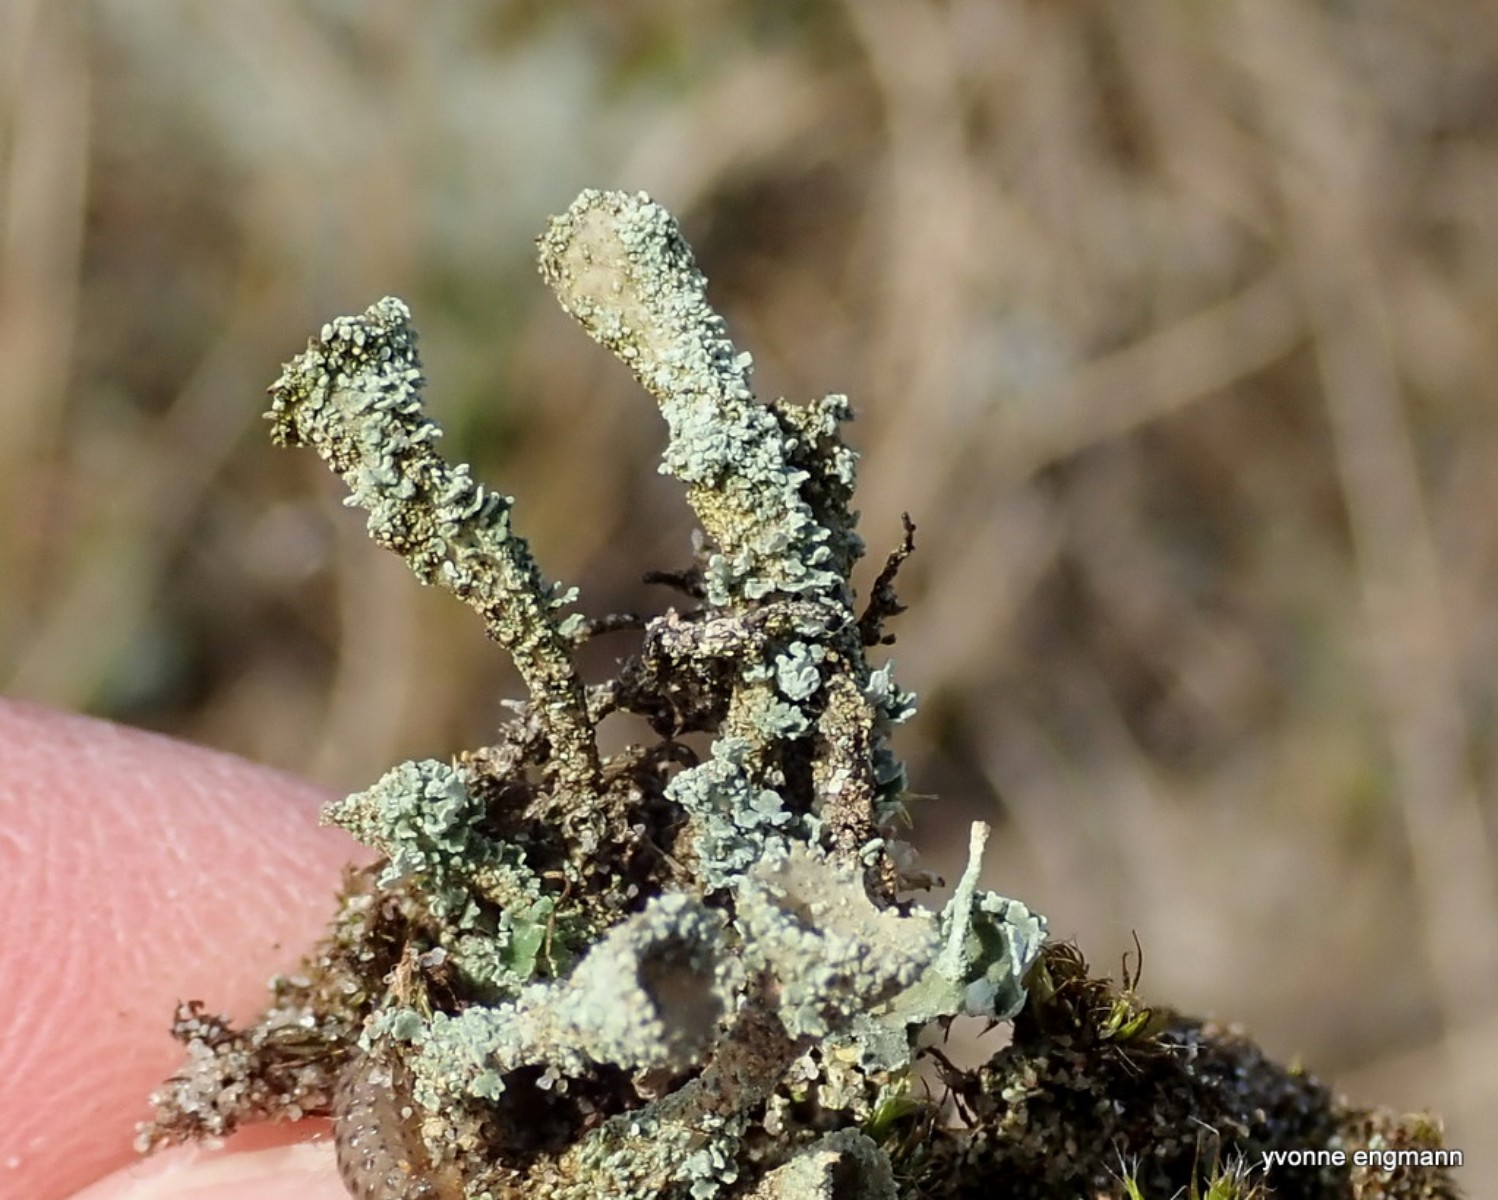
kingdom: Fungi
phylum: Ascomycota
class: Lecanoromycetes
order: Lecanorales
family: Cladoniaceae
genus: Cladonia
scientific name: Cladonia diversa
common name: rød bægerlav
